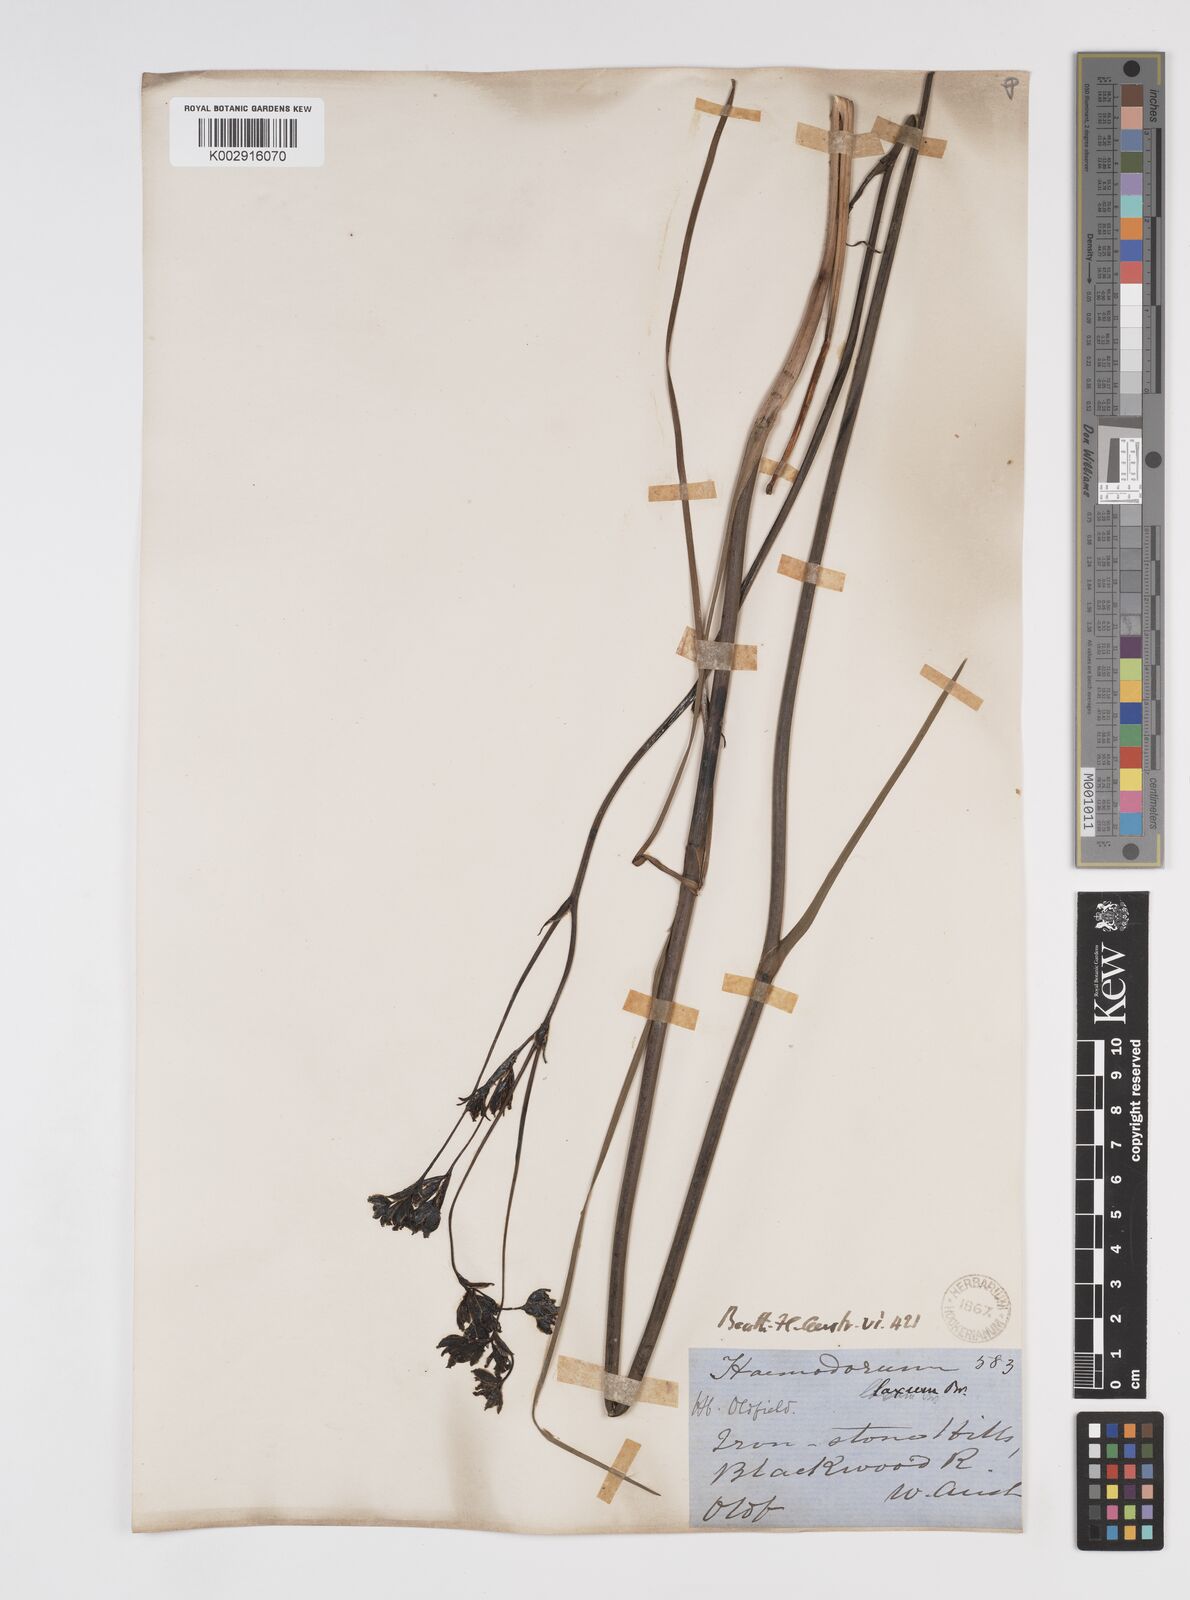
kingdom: Plantae
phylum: Tracheophyta
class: Liliopsida
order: Commelinales
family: Haemodoraceae
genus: Haemodorum
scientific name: Haemodorum laxum
